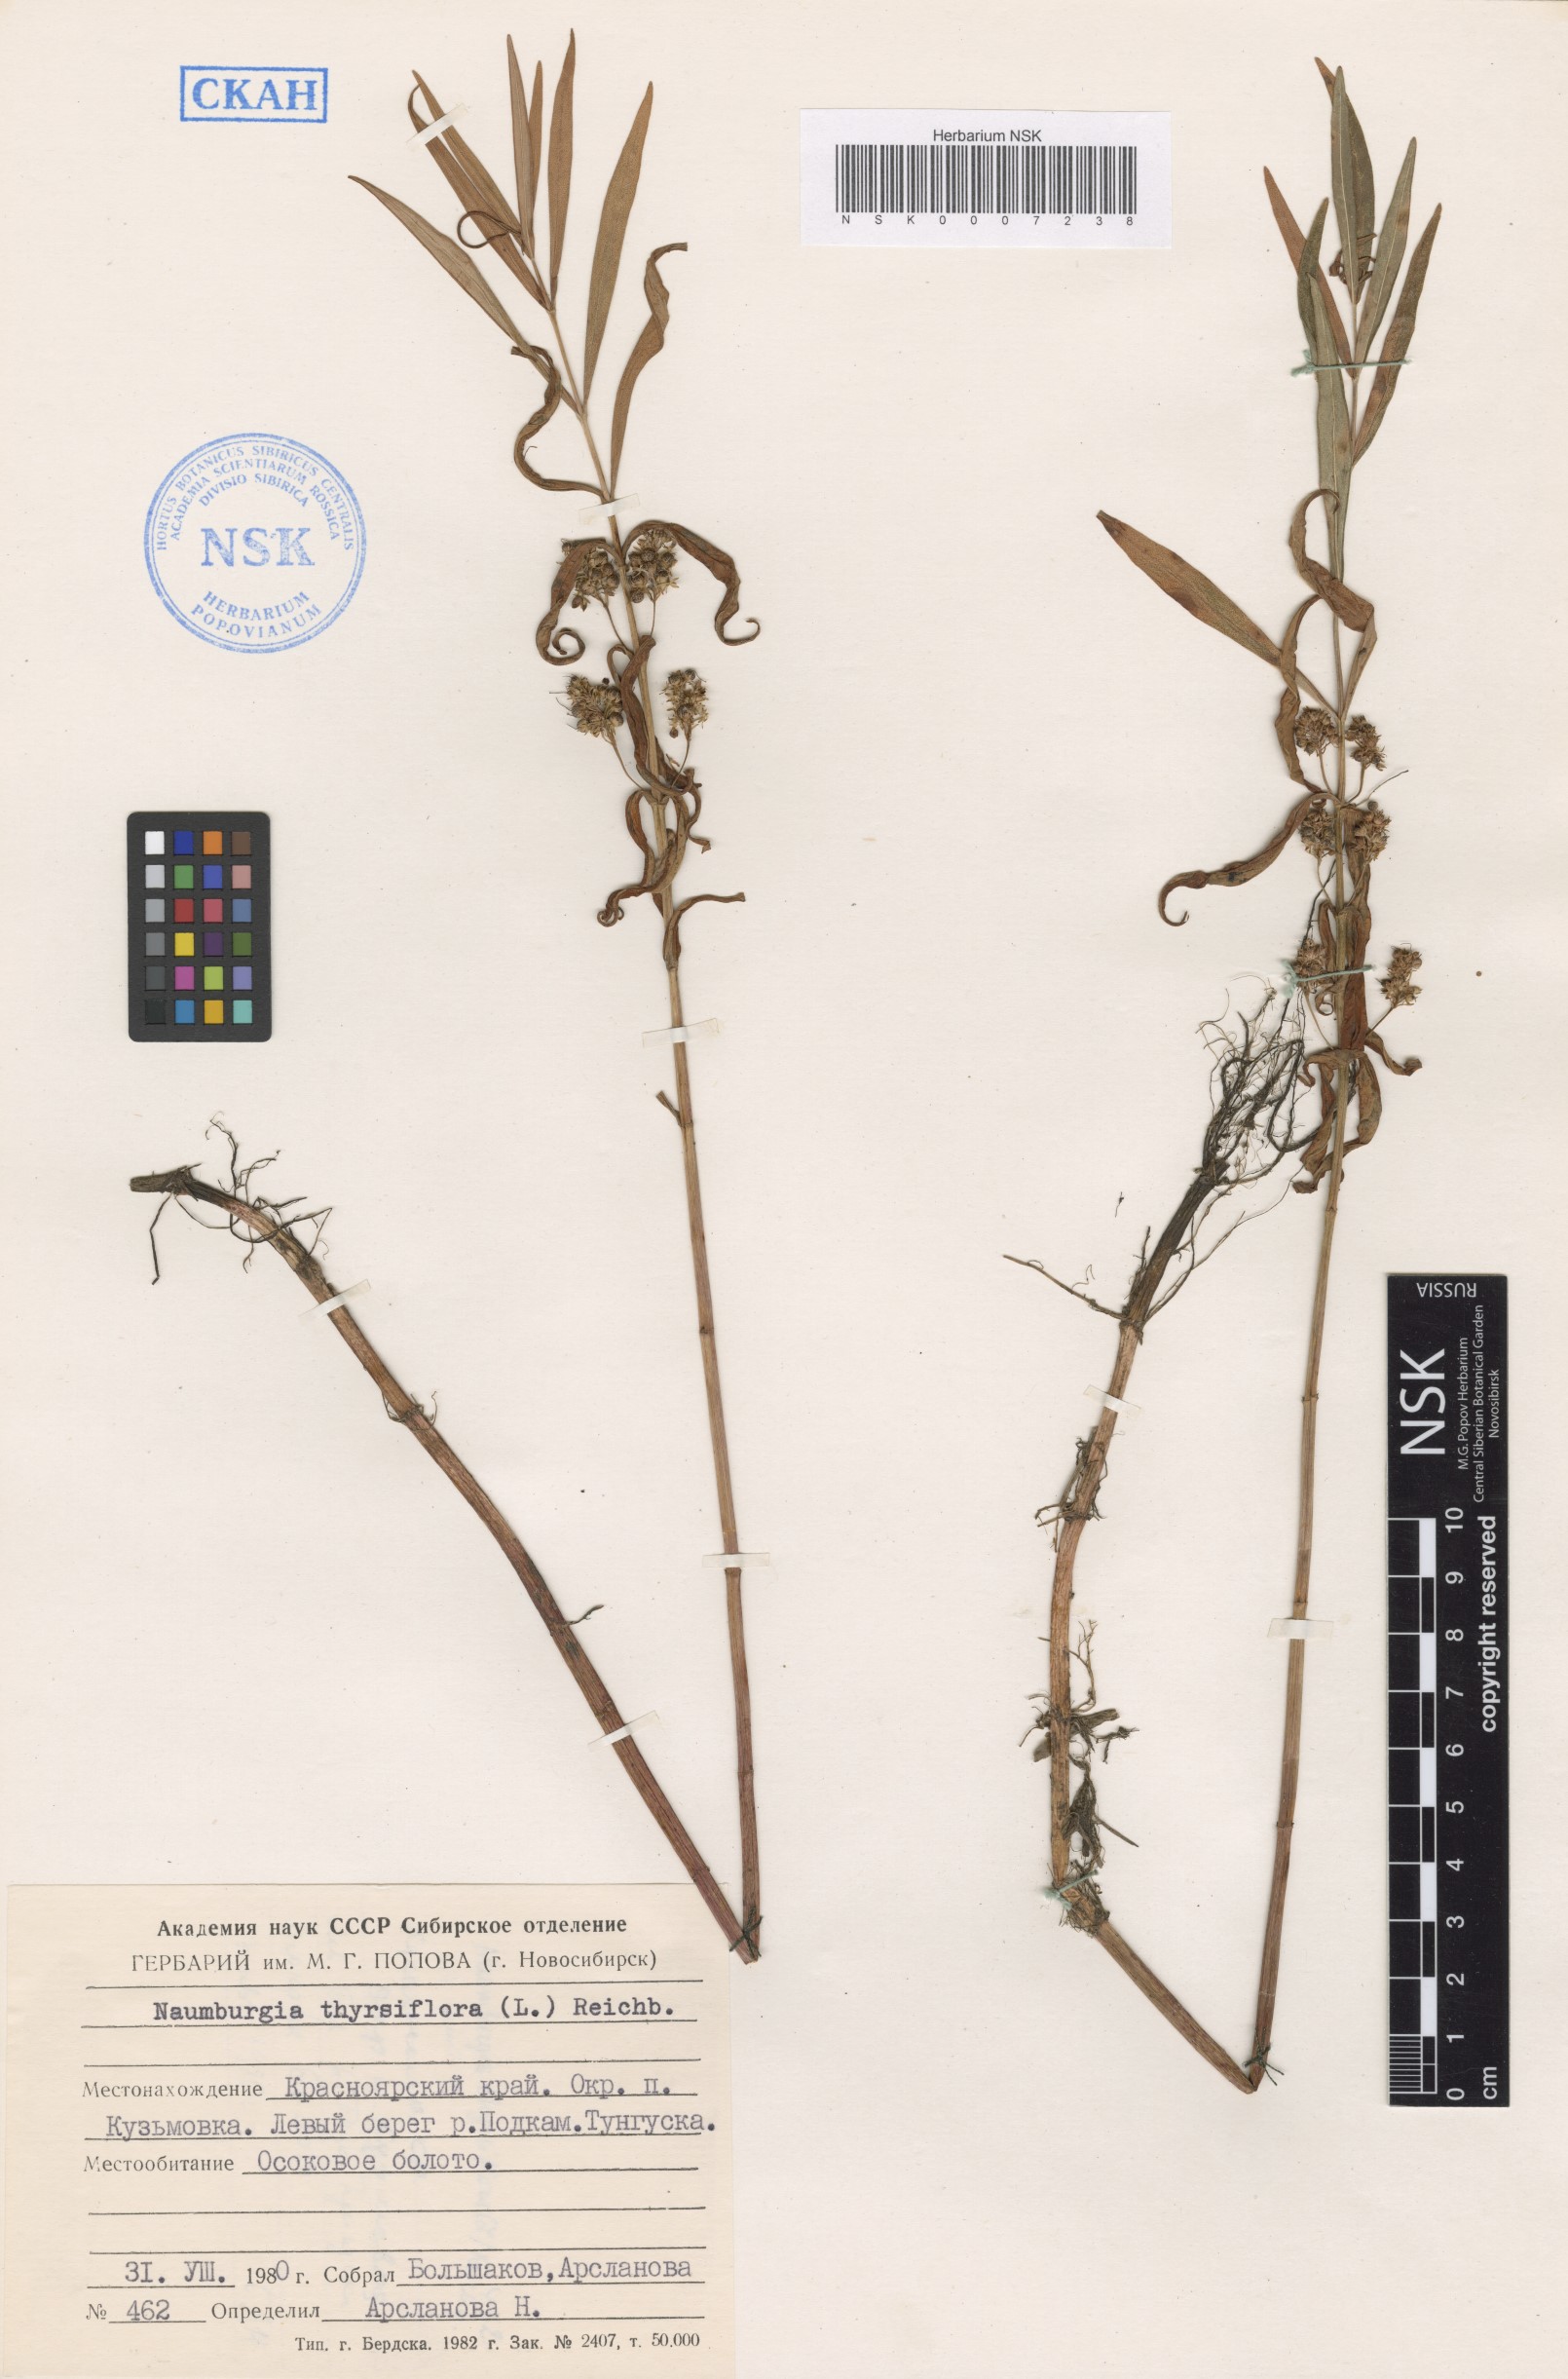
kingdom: Plantae
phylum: Tracheophyta
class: Magnoliopsida
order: Ericales
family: Primulaceae
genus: Lysimachia
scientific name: Lysimachia thyrsiflora
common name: Tufted loosestrife
